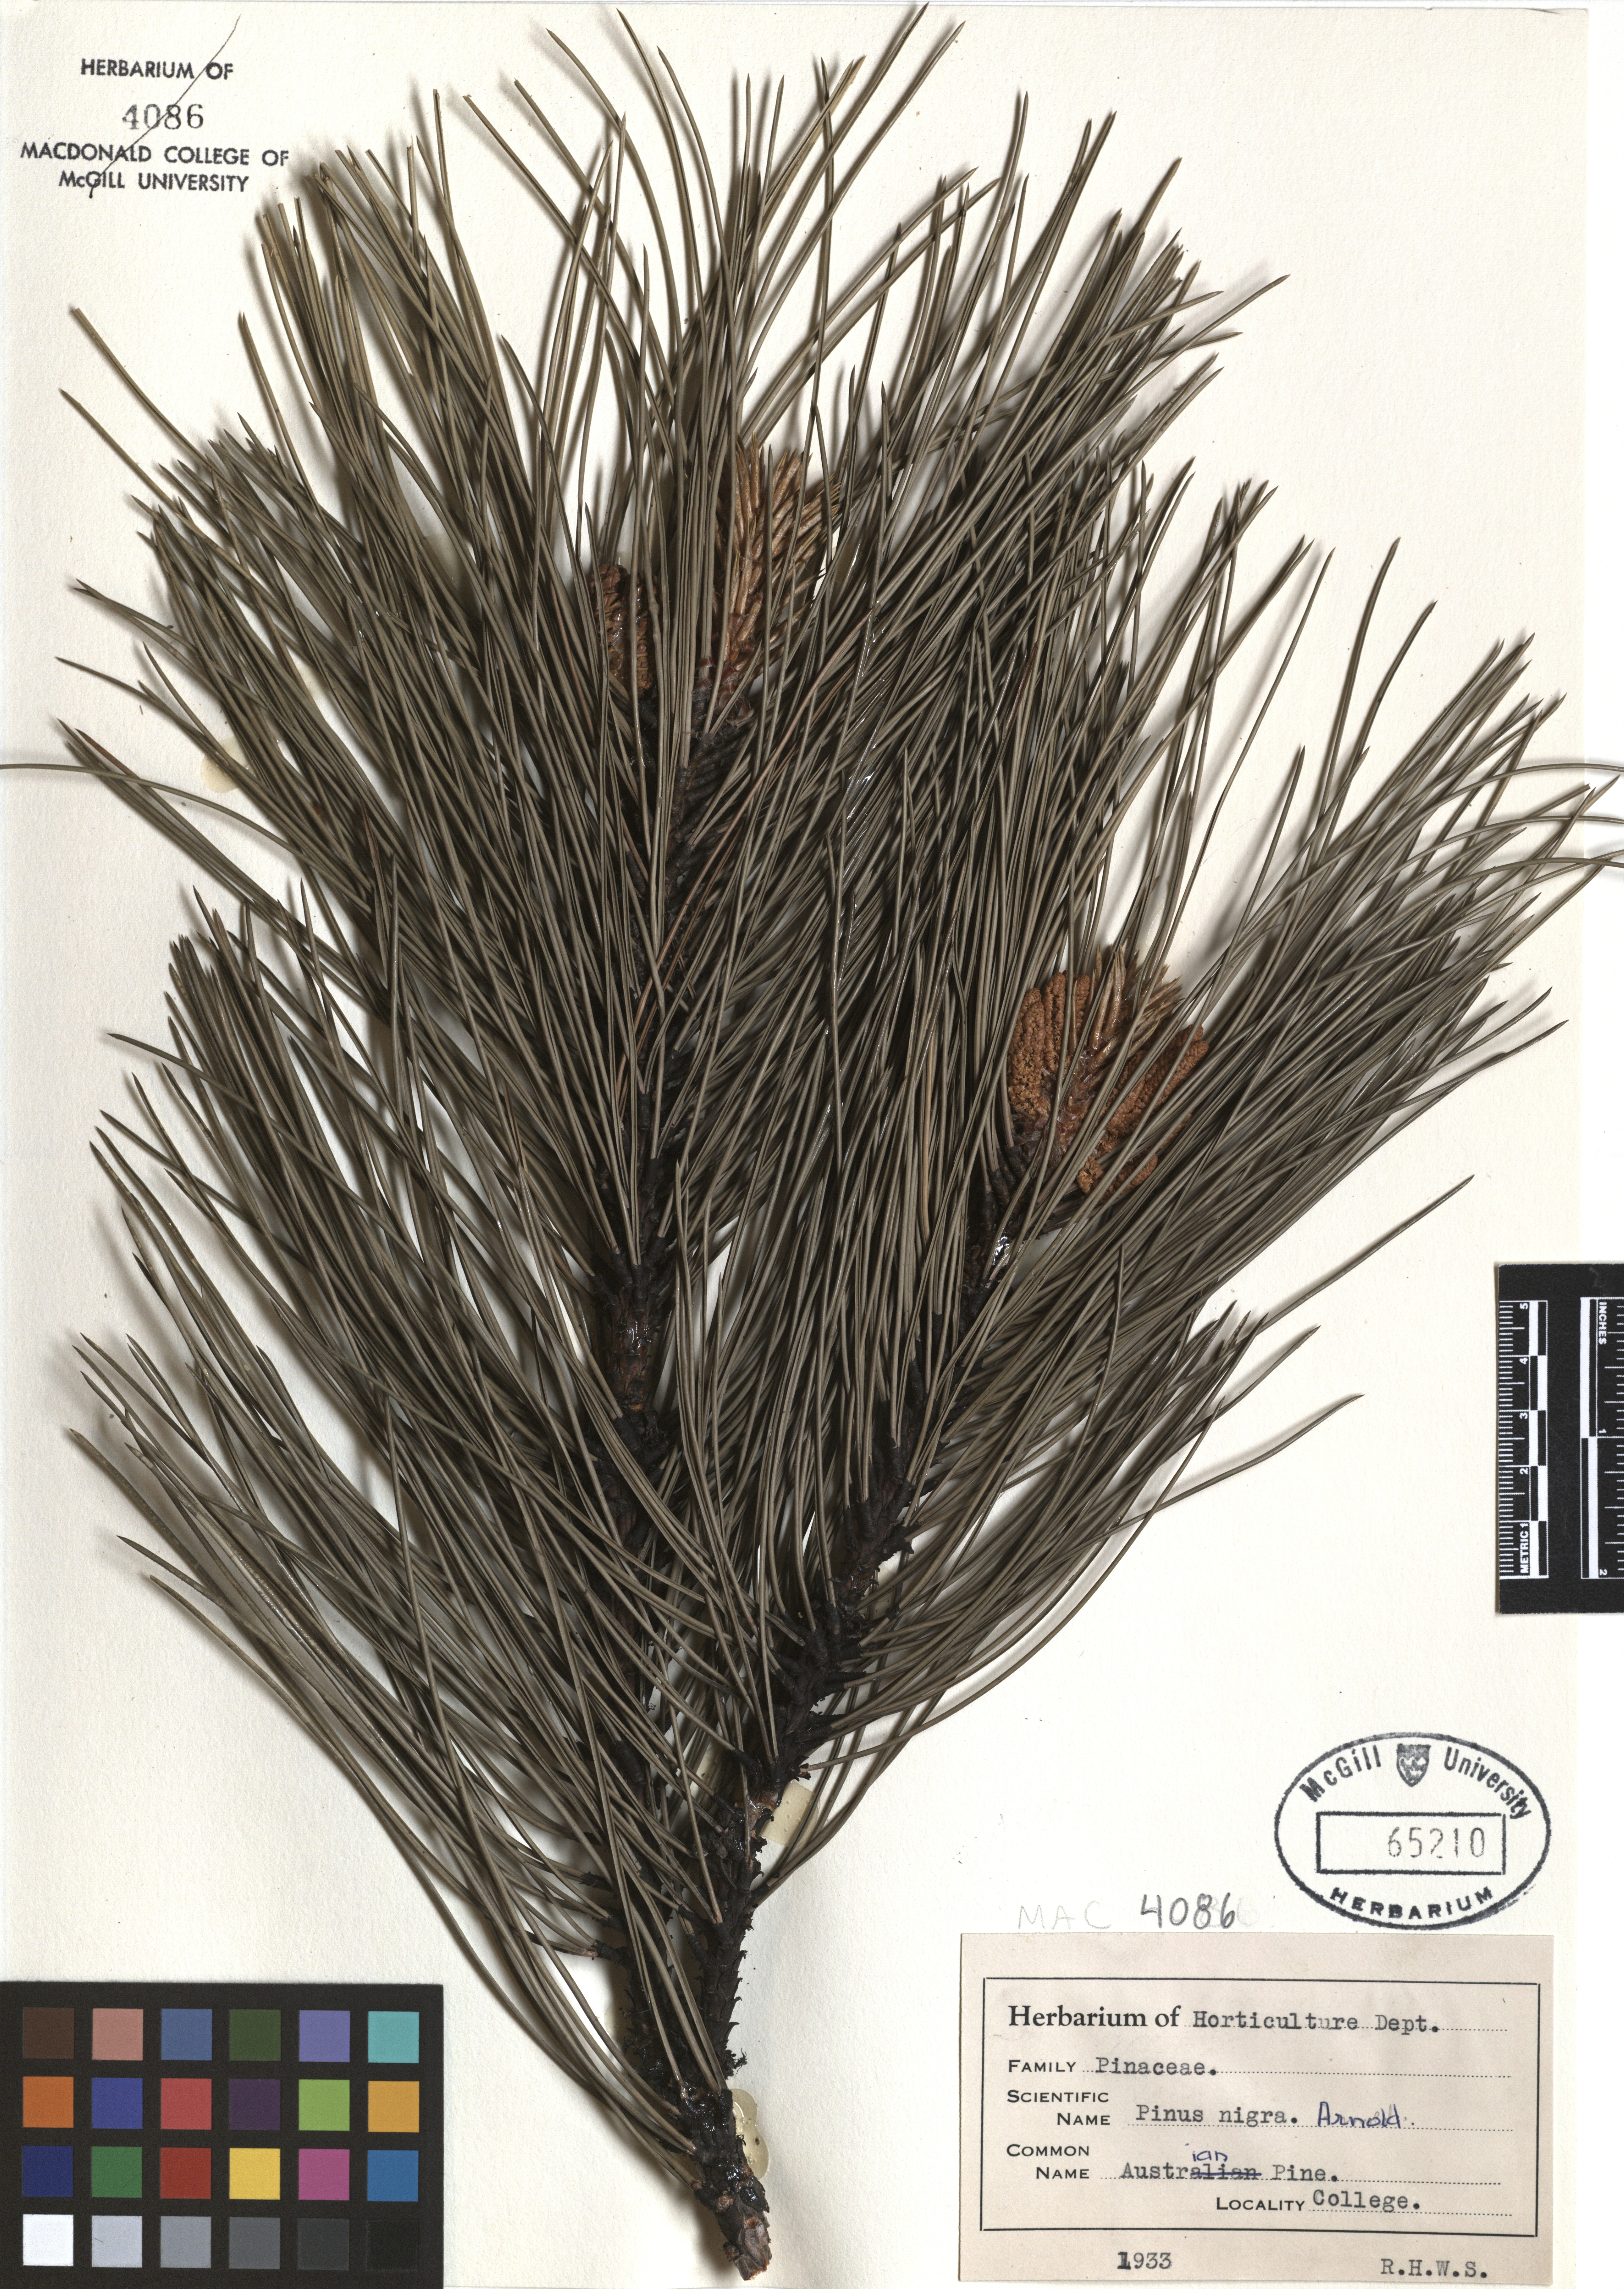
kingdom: Plantae
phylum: Tracheophyta
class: Pinopsida
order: Pinales
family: Pinaceae
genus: Pinus
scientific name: Pinus nigra
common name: Austrian pine
